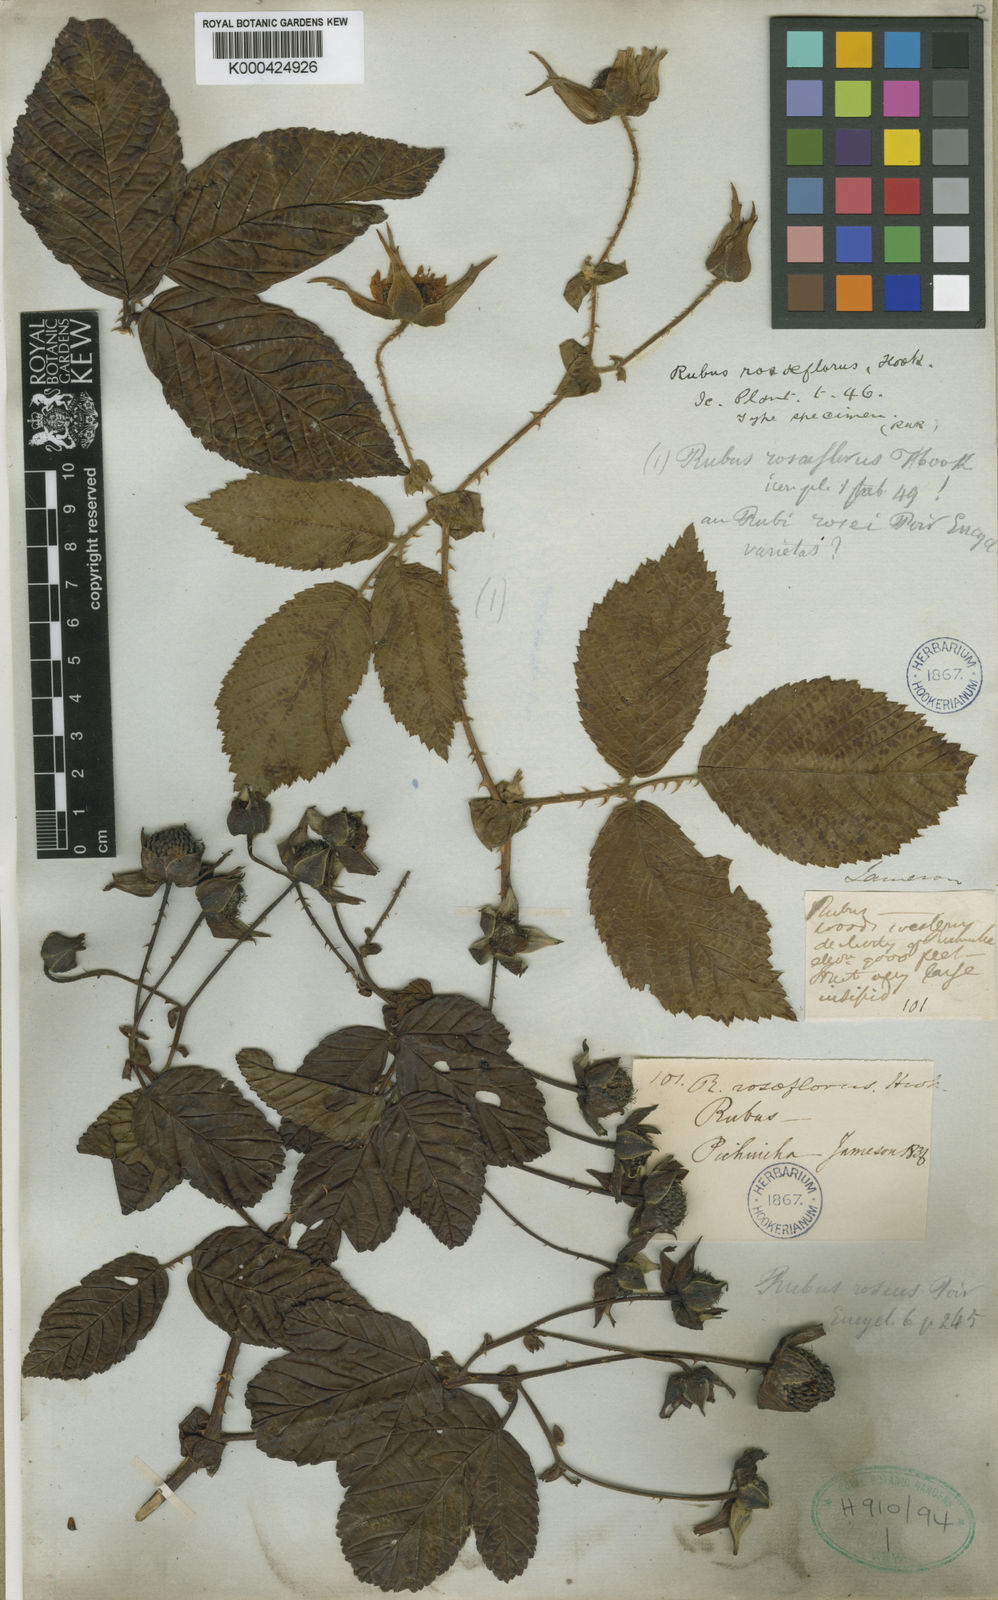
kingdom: Plantae
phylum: Tracheophyta
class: Magnoliopsida
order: Rosales
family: Rosaceae
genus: Rubus
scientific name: Rubus rosaeflorus
